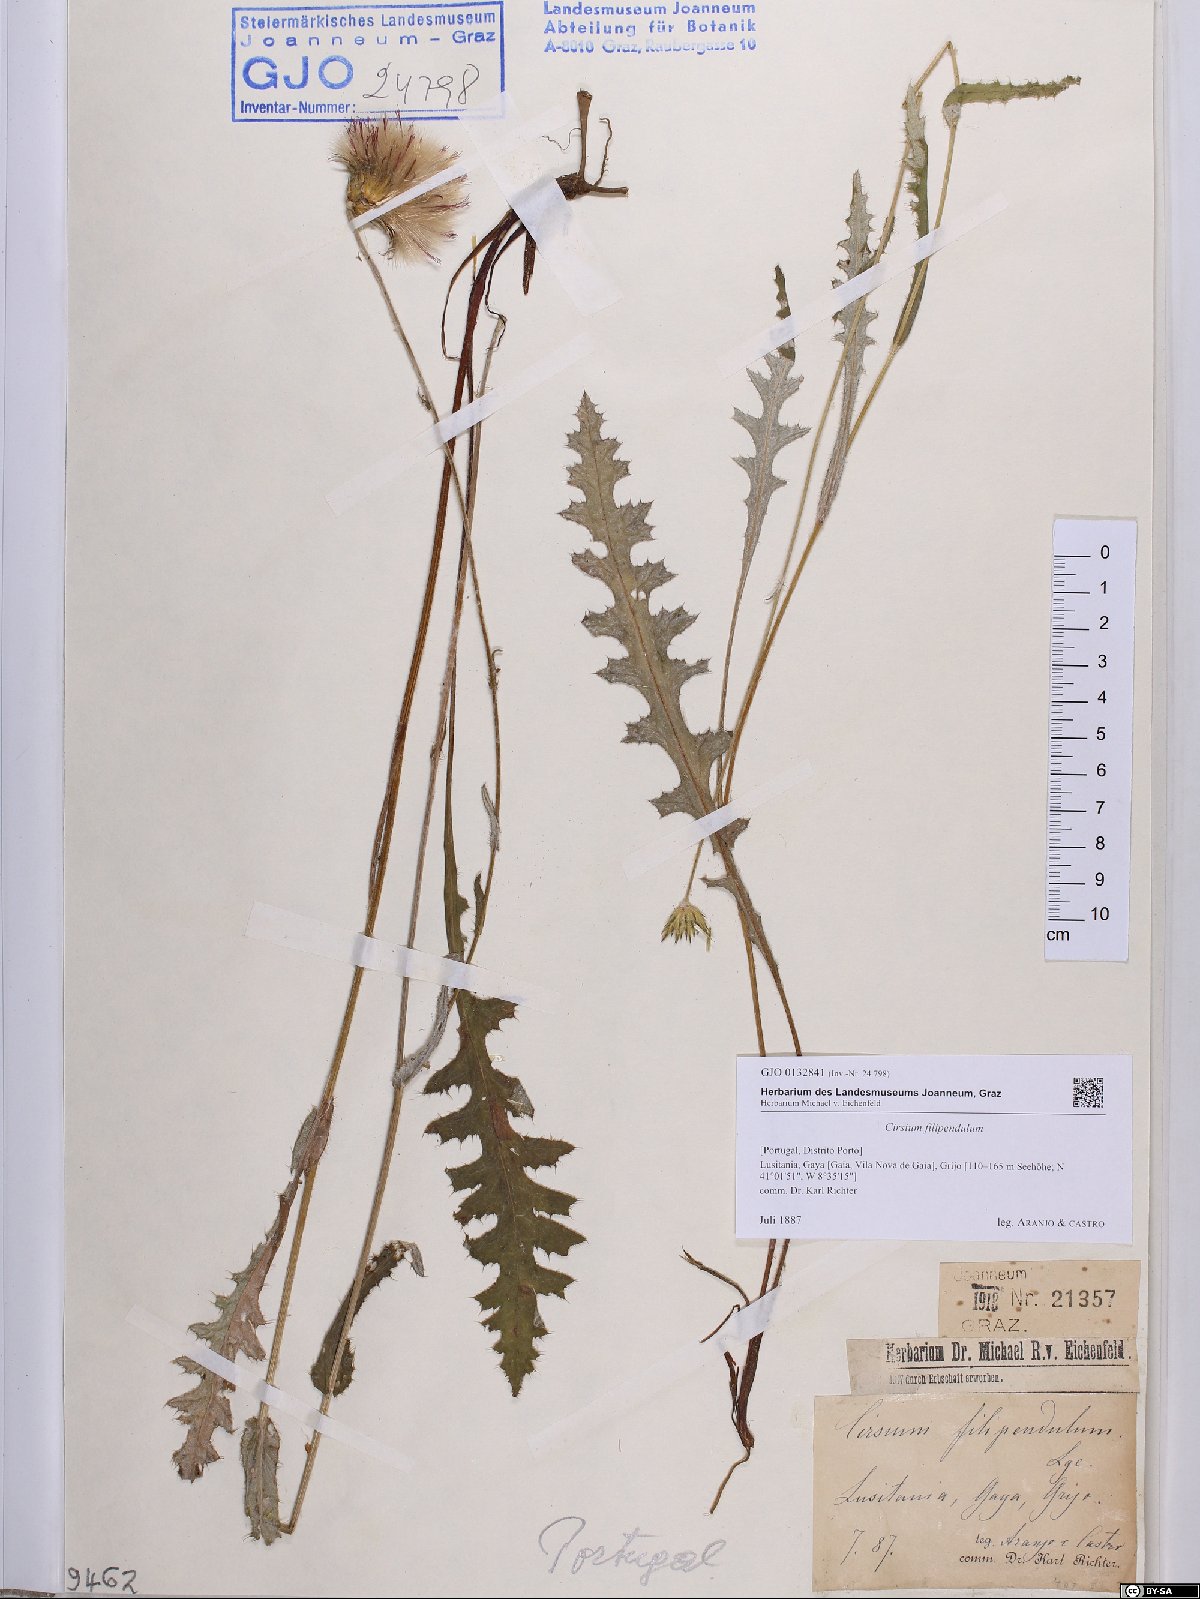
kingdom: Plantae
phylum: Tracheophyta
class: Magnoliopsida
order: Asterales
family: Asteraceae
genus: Cirsium
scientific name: Cirsium filipendulum
